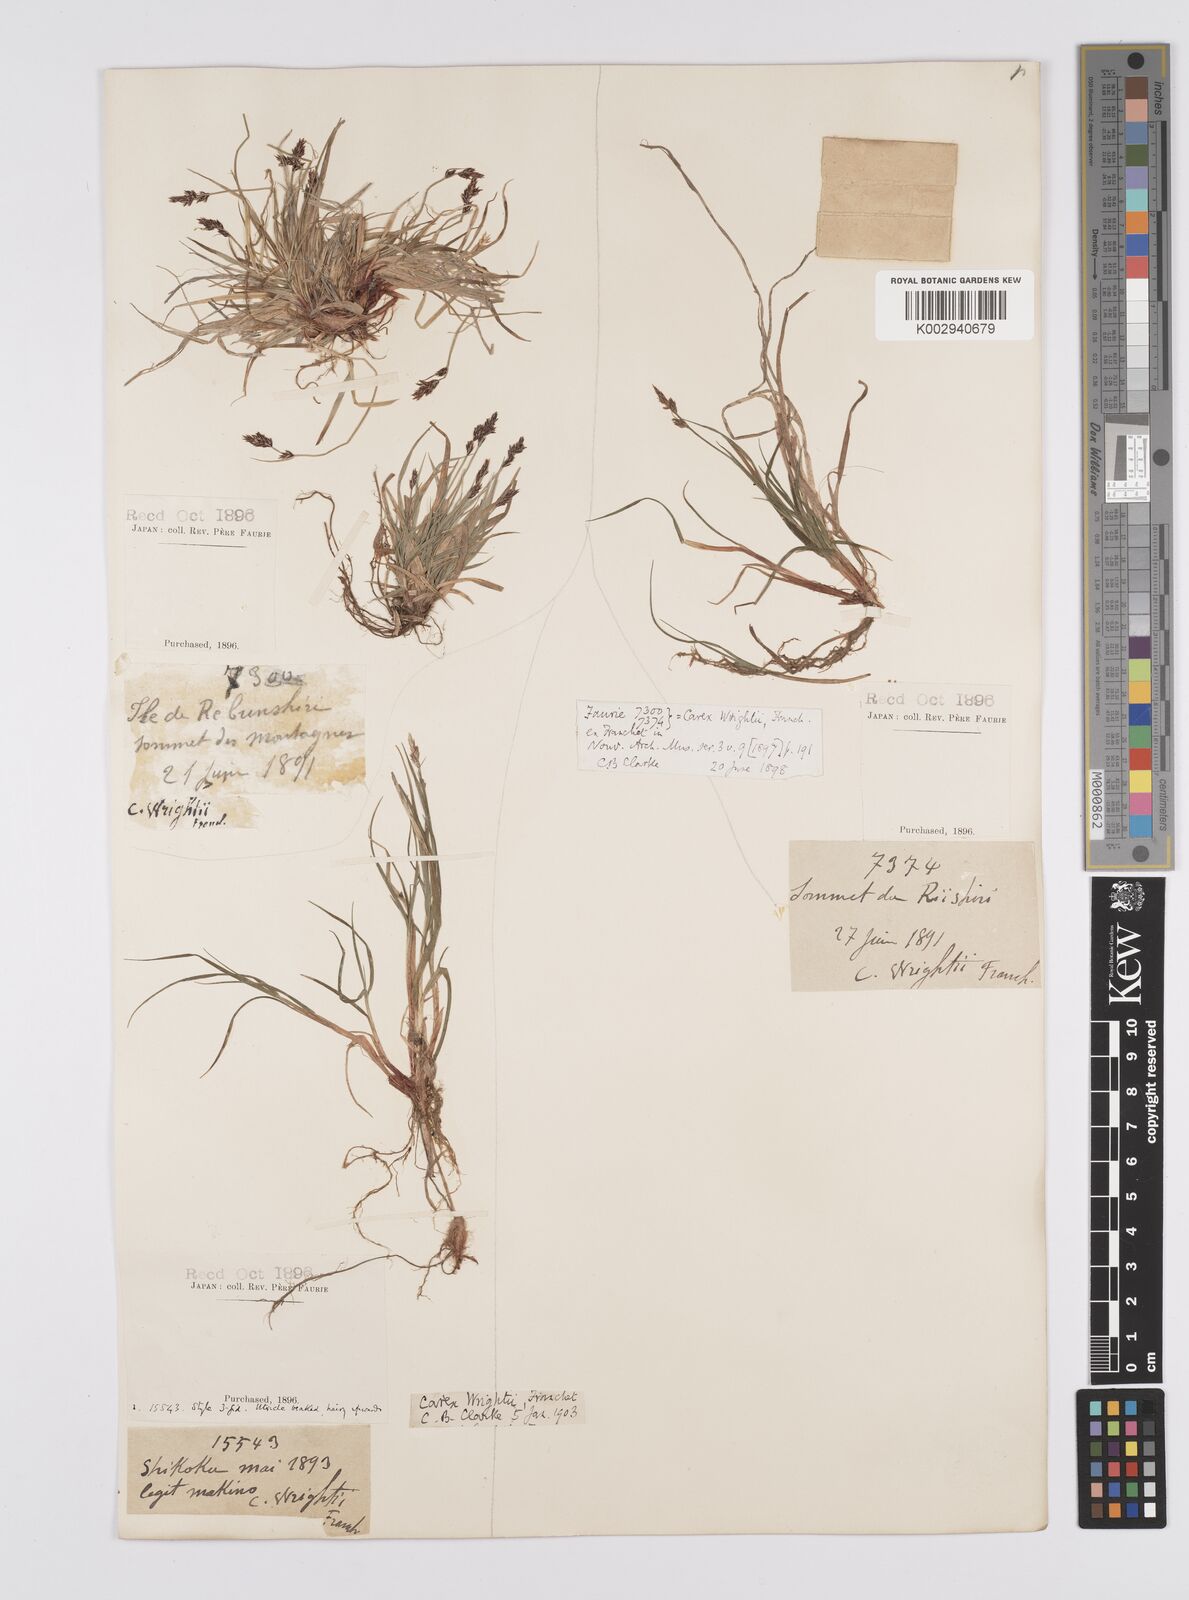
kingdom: Plantae
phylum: Tracheophyta
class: Liliopsida
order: Poales
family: Cyperaceae
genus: Carex
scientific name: Carex oxyandra
